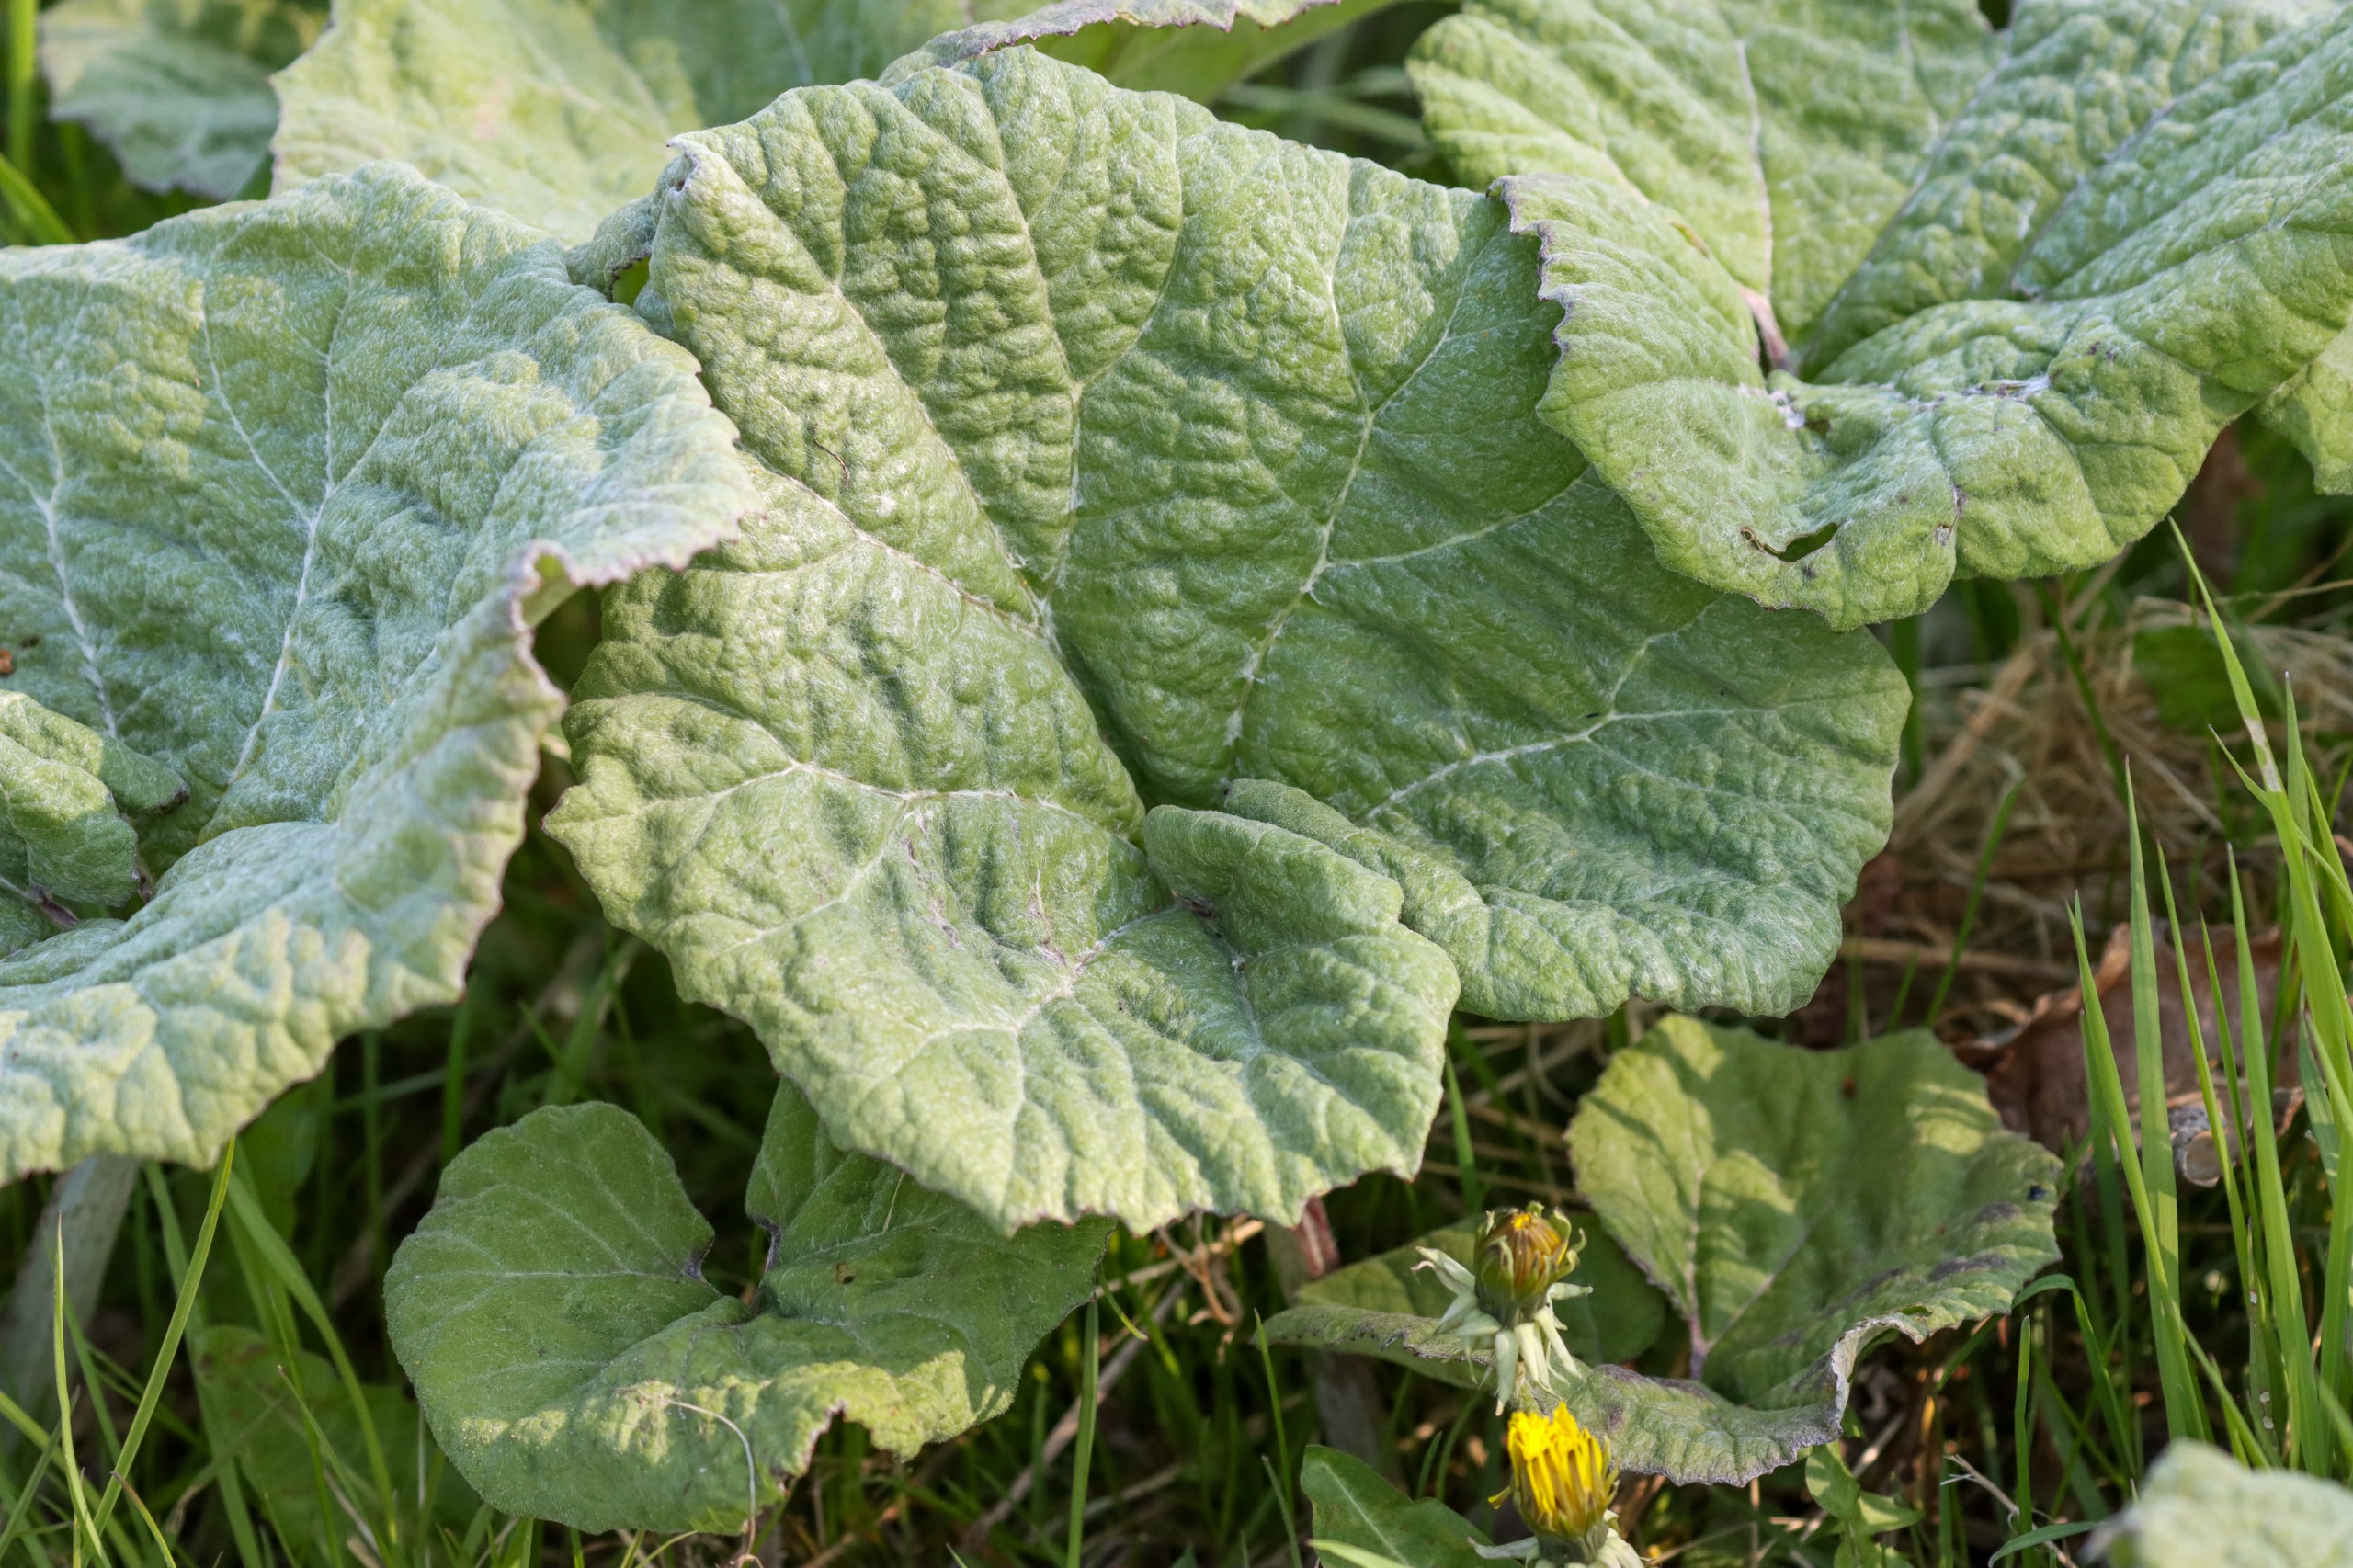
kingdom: Plantae
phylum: Tracheophyta
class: Magnoliopsida
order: Asterales
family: Asteraceae
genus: Petasites
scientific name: Petasites hybridus
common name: Rød hestehov
